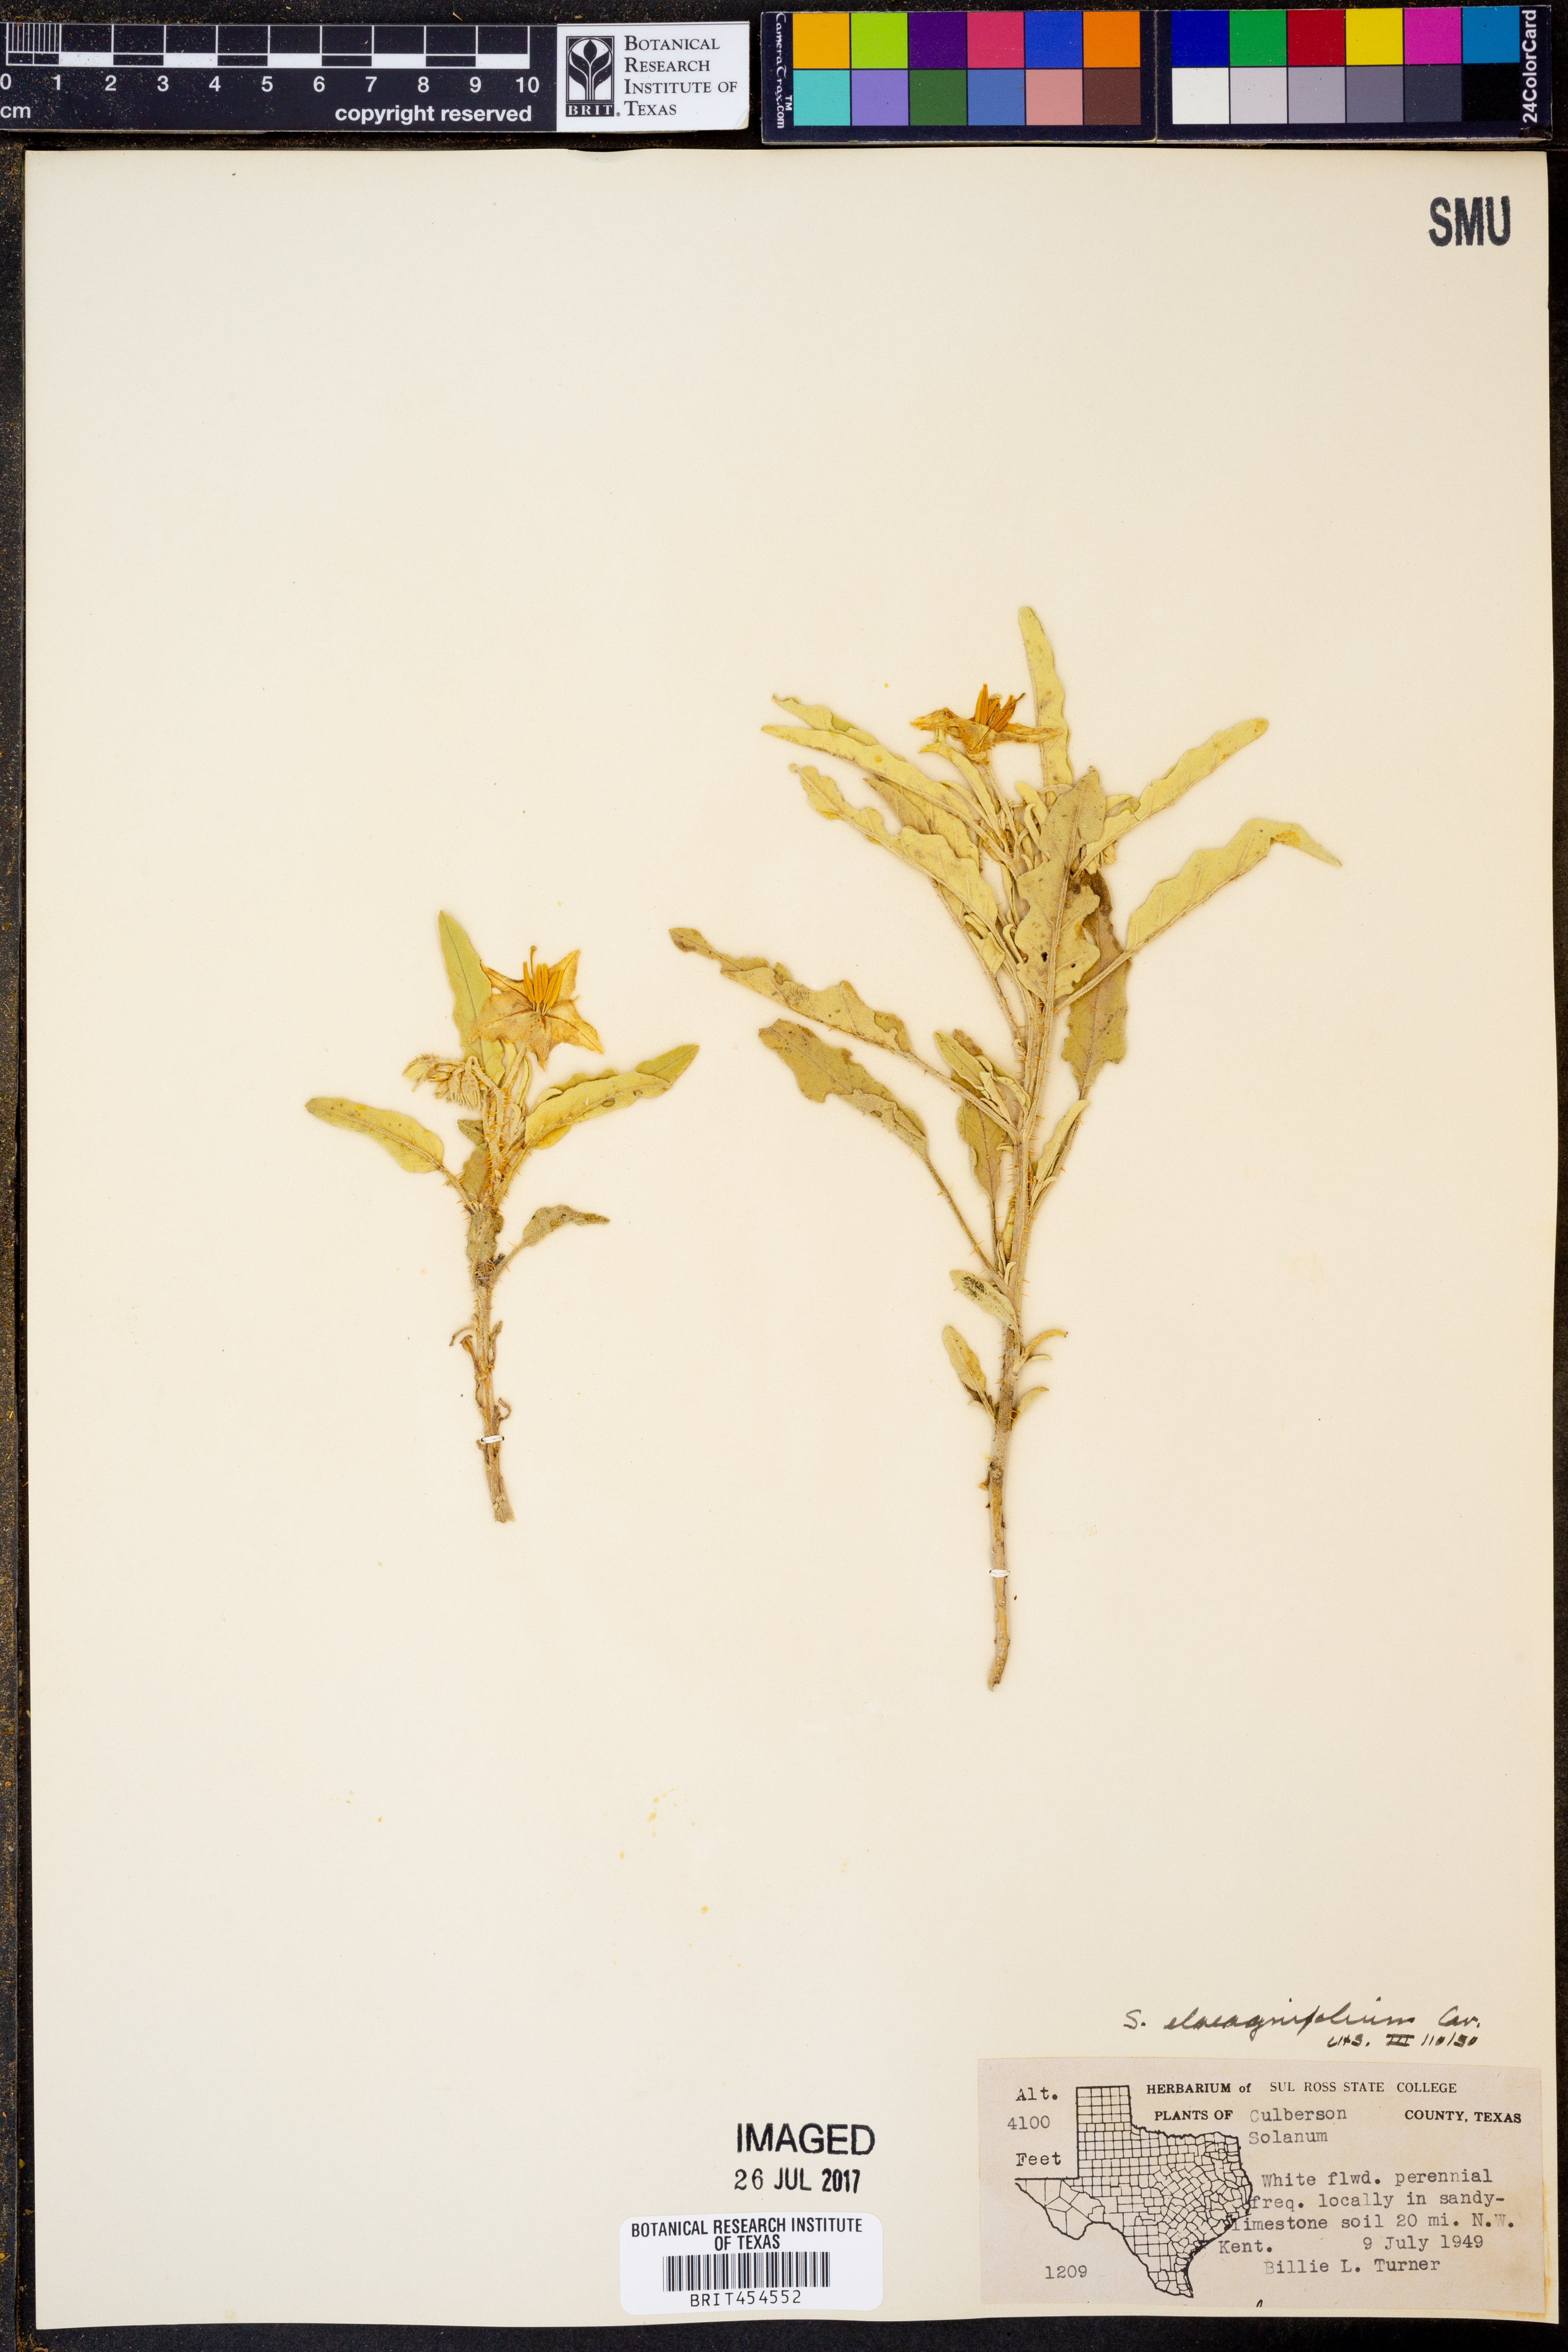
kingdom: Plantae
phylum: Tracheophyta
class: Magnoliopsida
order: Solanales
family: Solanaceae
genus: Solanum
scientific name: Solanum elaeagnifolium
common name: Silverleaf nightshade
